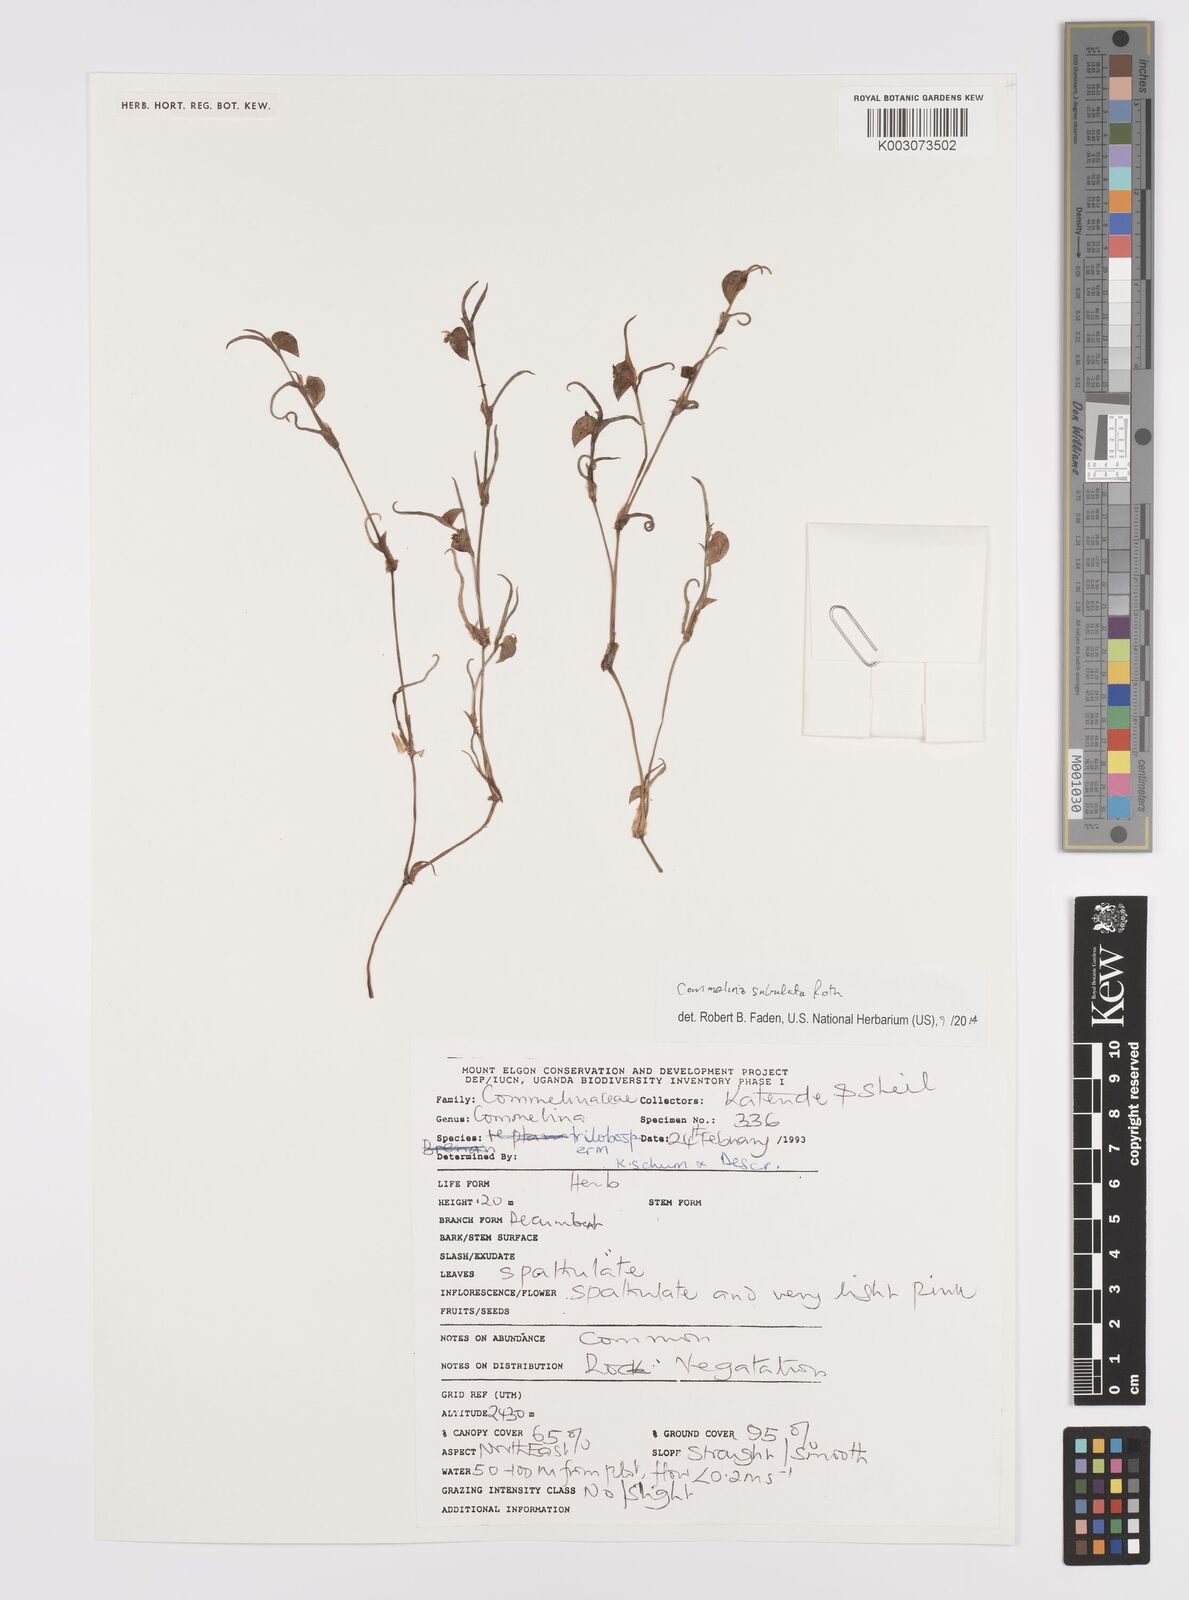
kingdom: Plantae
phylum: Tracheophyta
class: Liliopsida
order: Commelinales
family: Commelinaceae
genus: Commelina
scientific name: Commelina subulata
